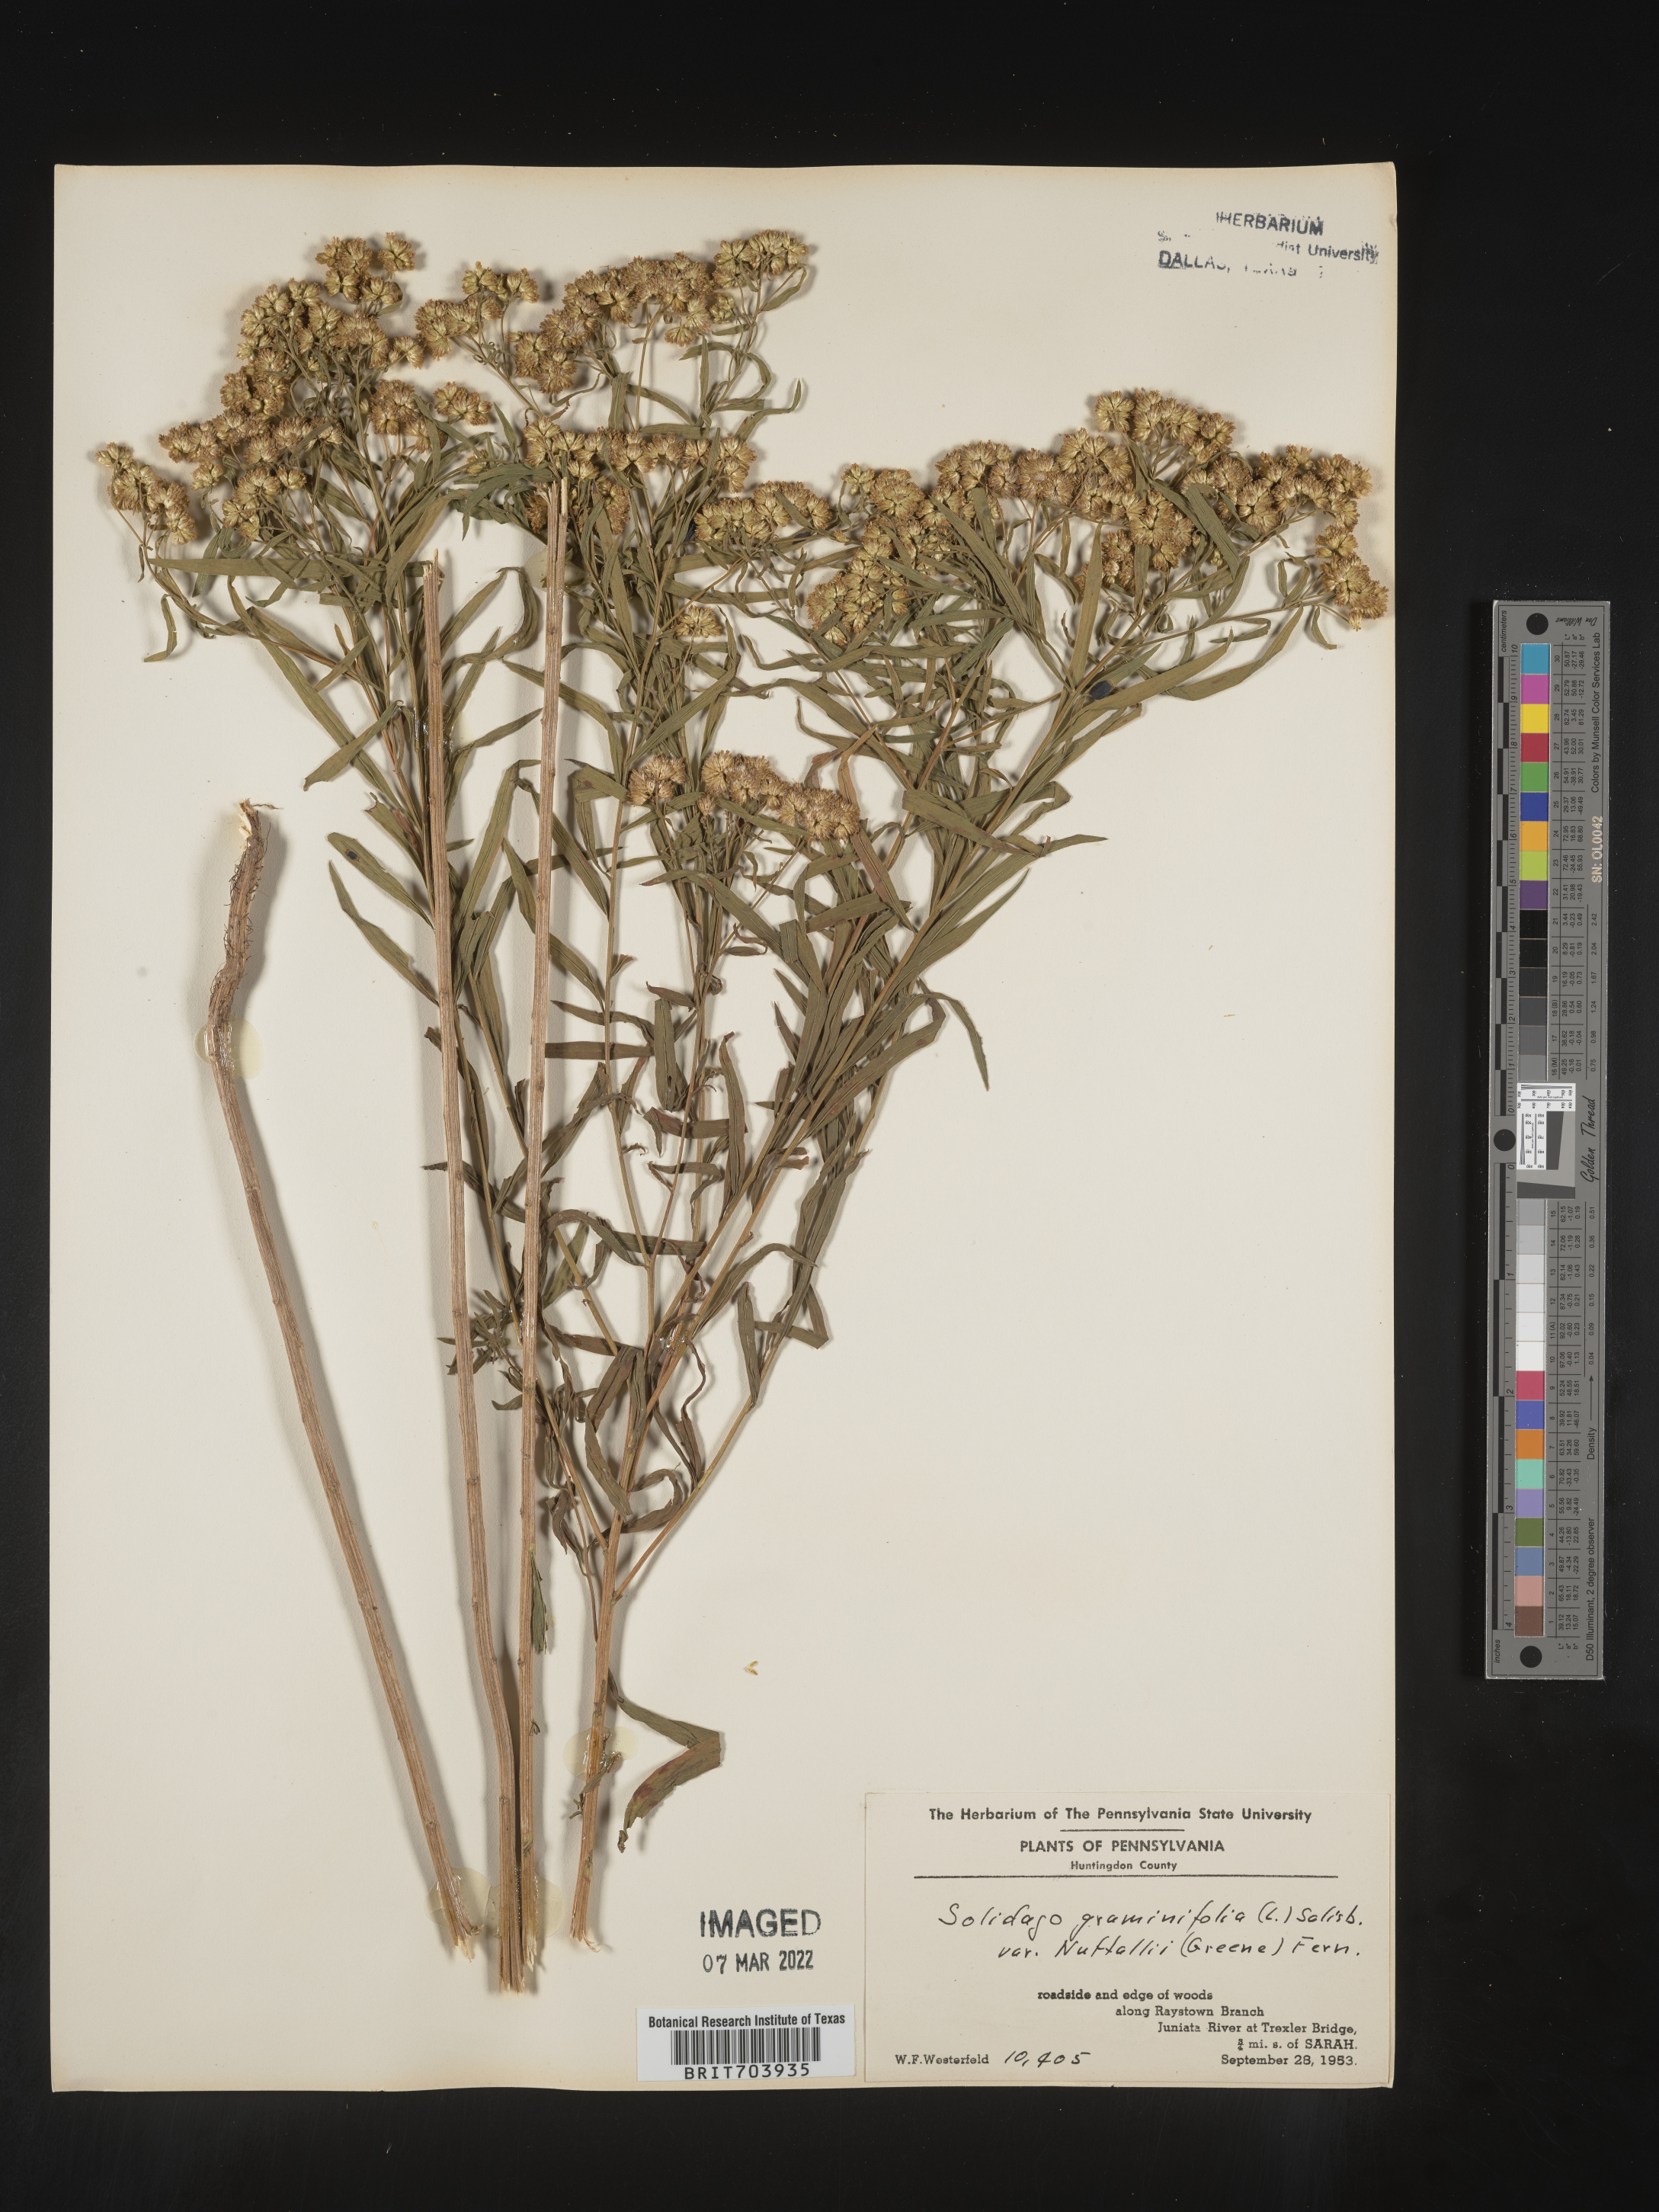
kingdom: Plantae
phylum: Tracheophyta
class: Magnoliopsida
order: Asterales
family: Asteraceae
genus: Euthamia
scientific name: Euthamia graminifolia
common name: Common goldentop
